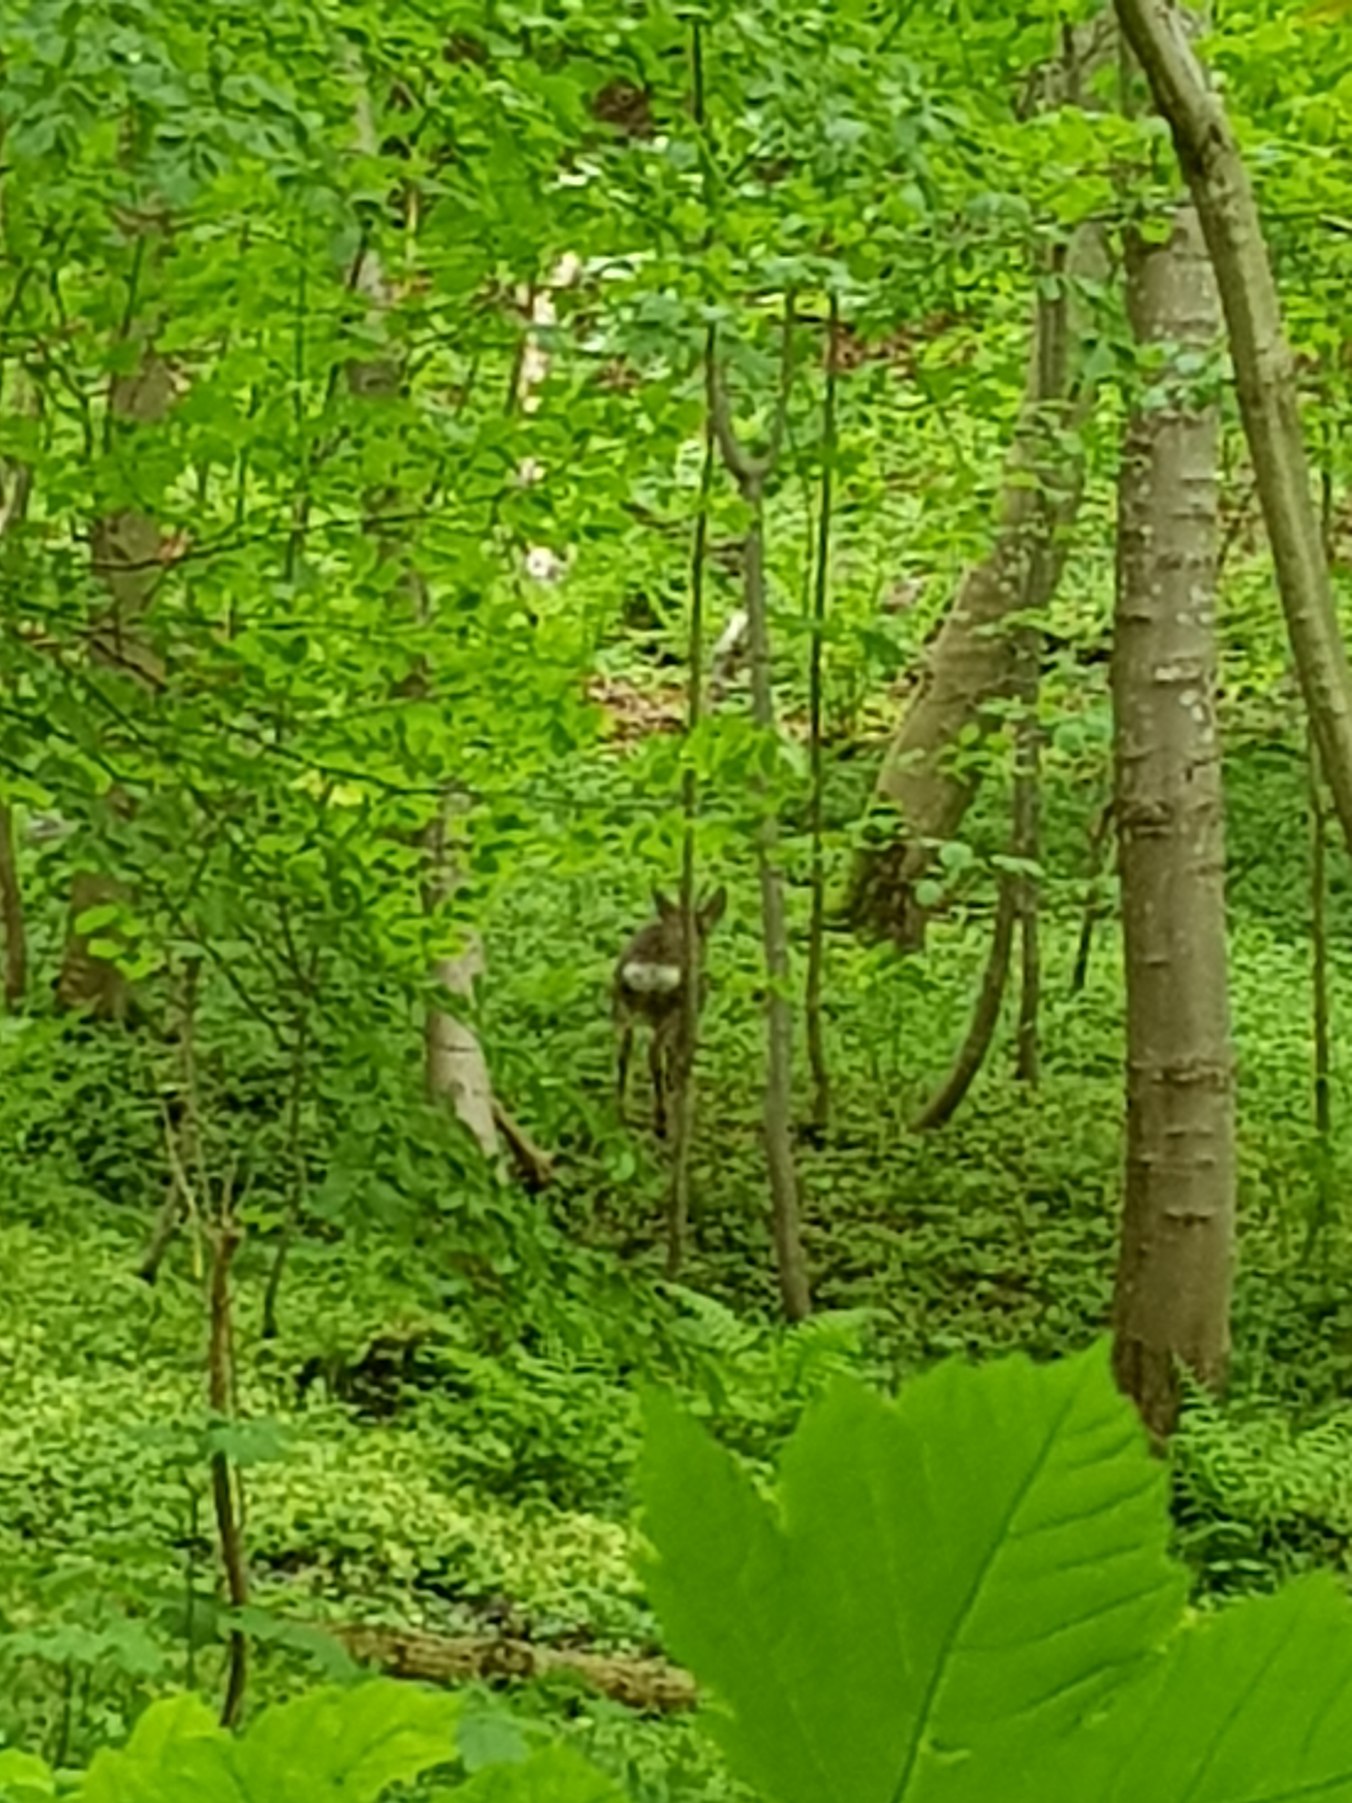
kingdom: Animalia
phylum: Chordata
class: Mammalia
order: Artiodactyla
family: Cervidae
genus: Capreolus
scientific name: Capreolus capreolus
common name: Rådyr
